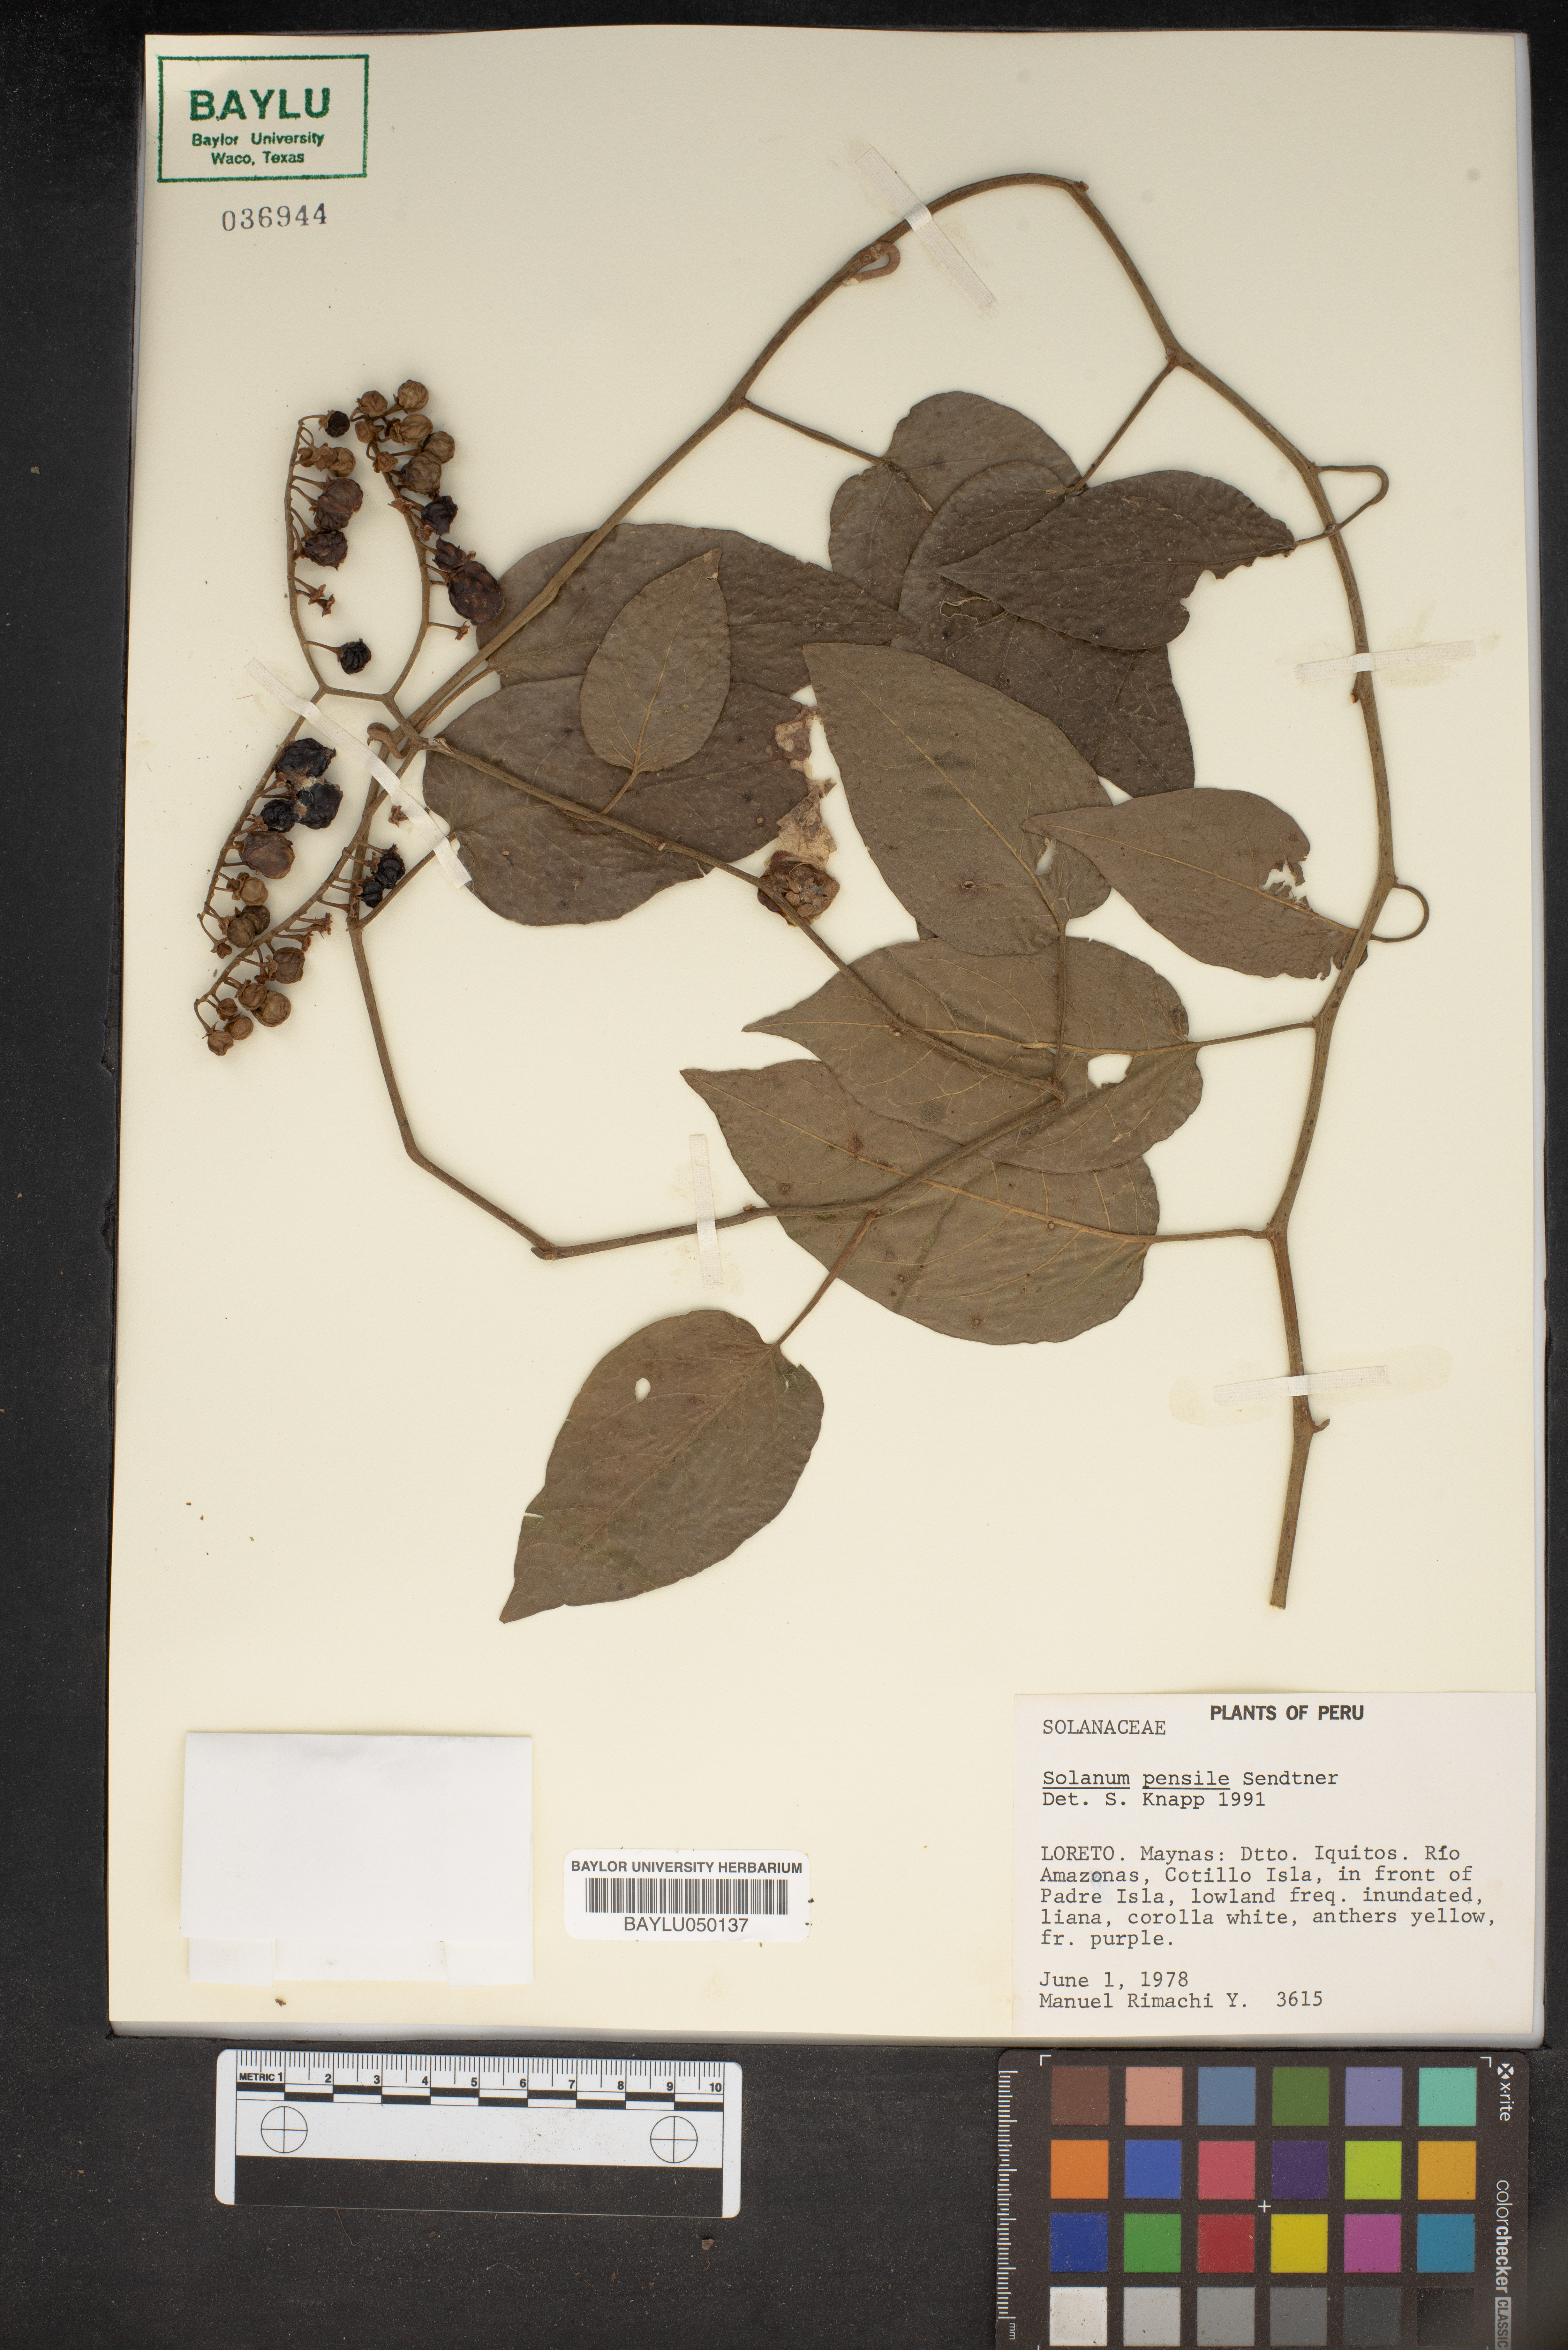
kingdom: Plantae
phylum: Tracheophyta
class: Magnoliopsida
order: Solanales
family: Solanaceae
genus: Solanum
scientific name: Solanum uncinellum
